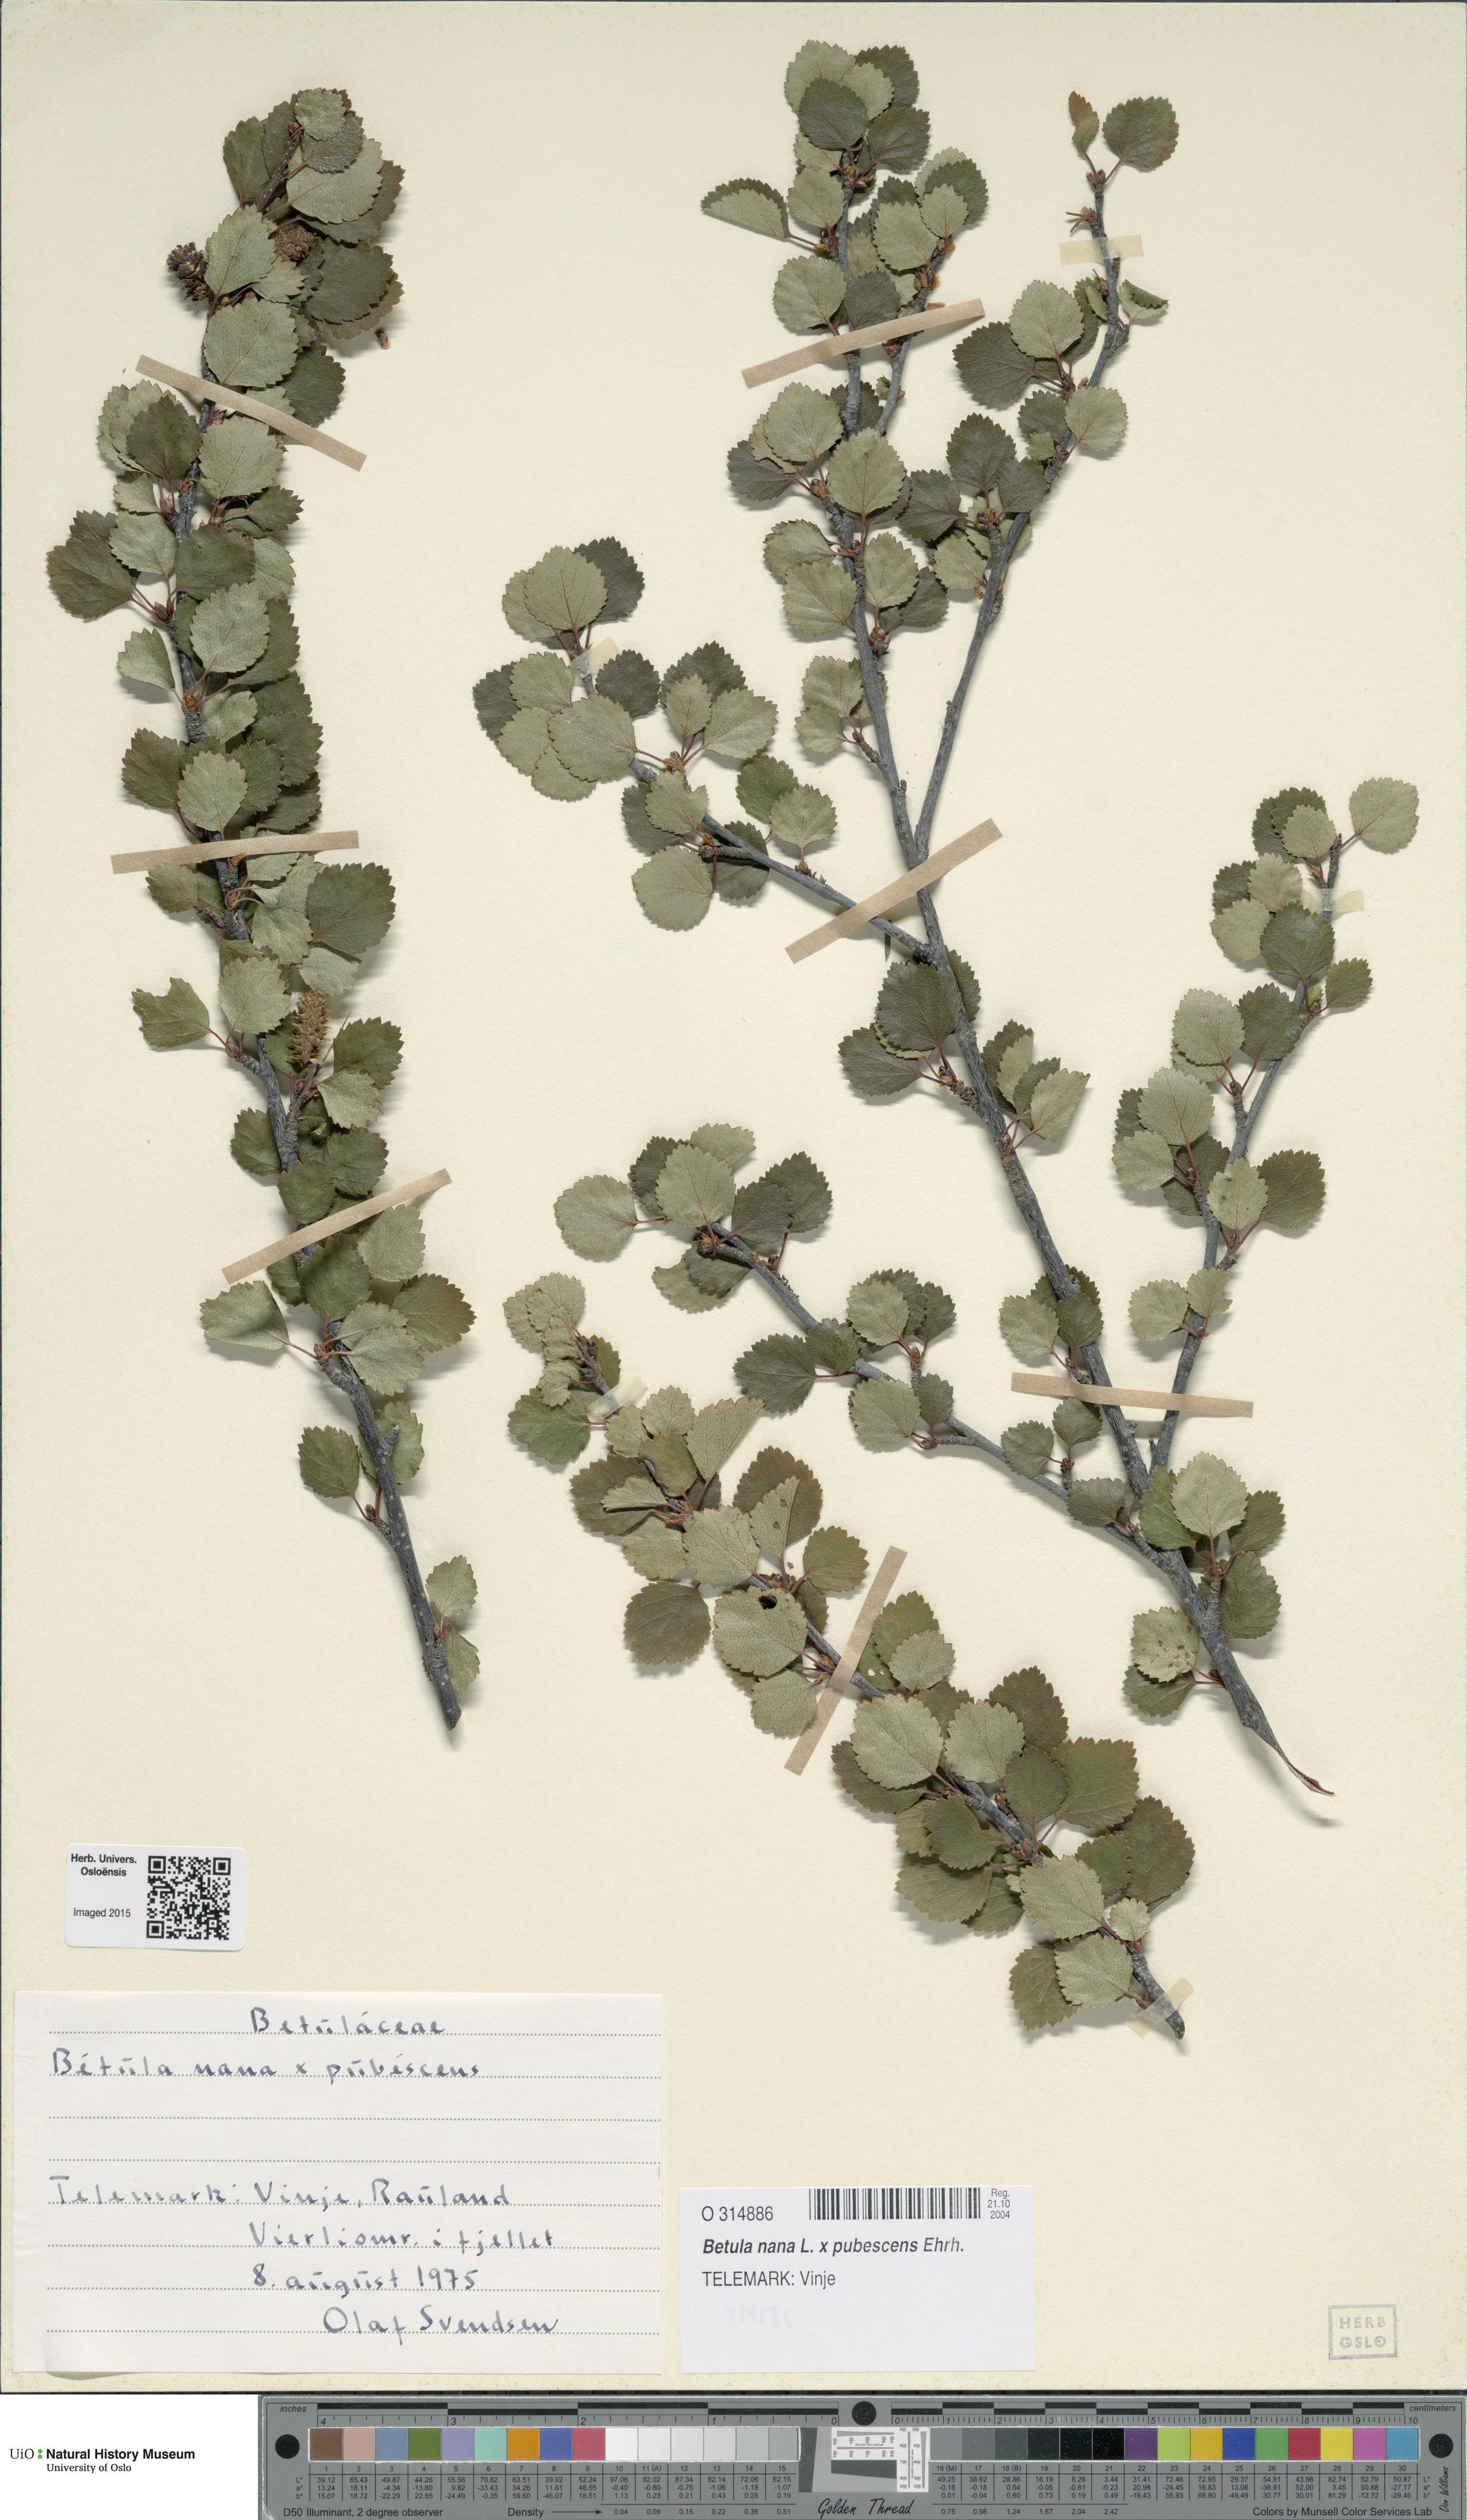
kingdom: Plantae
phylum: Tracheophyta
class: Magnoliopsida
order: Fagales
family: Betulaceae
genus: Betula
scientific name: Betula
